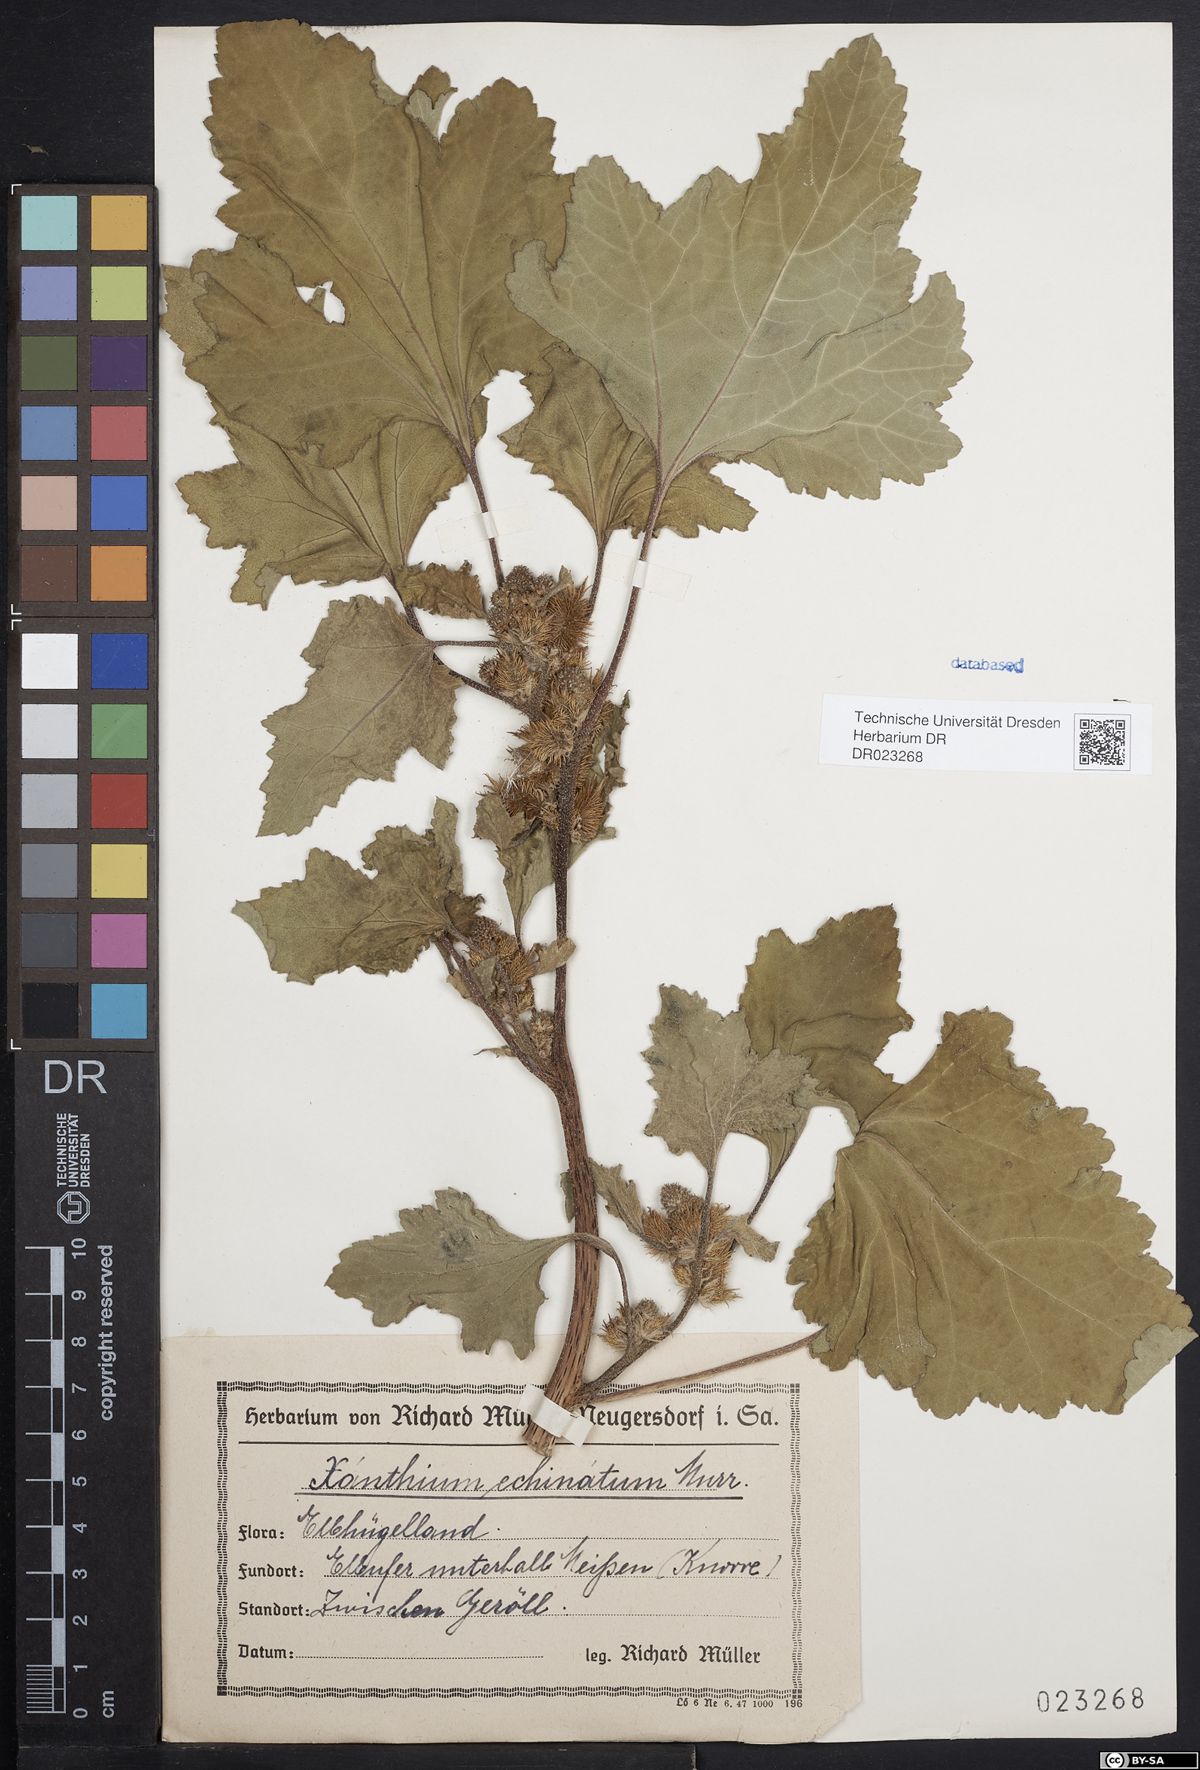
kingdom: Plantae
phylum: Tracheophyta
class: Magnoliopsida
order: Asterales
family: Asteraceae
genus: Xanthium
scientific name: Xanthium orientale
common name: Californian burr
